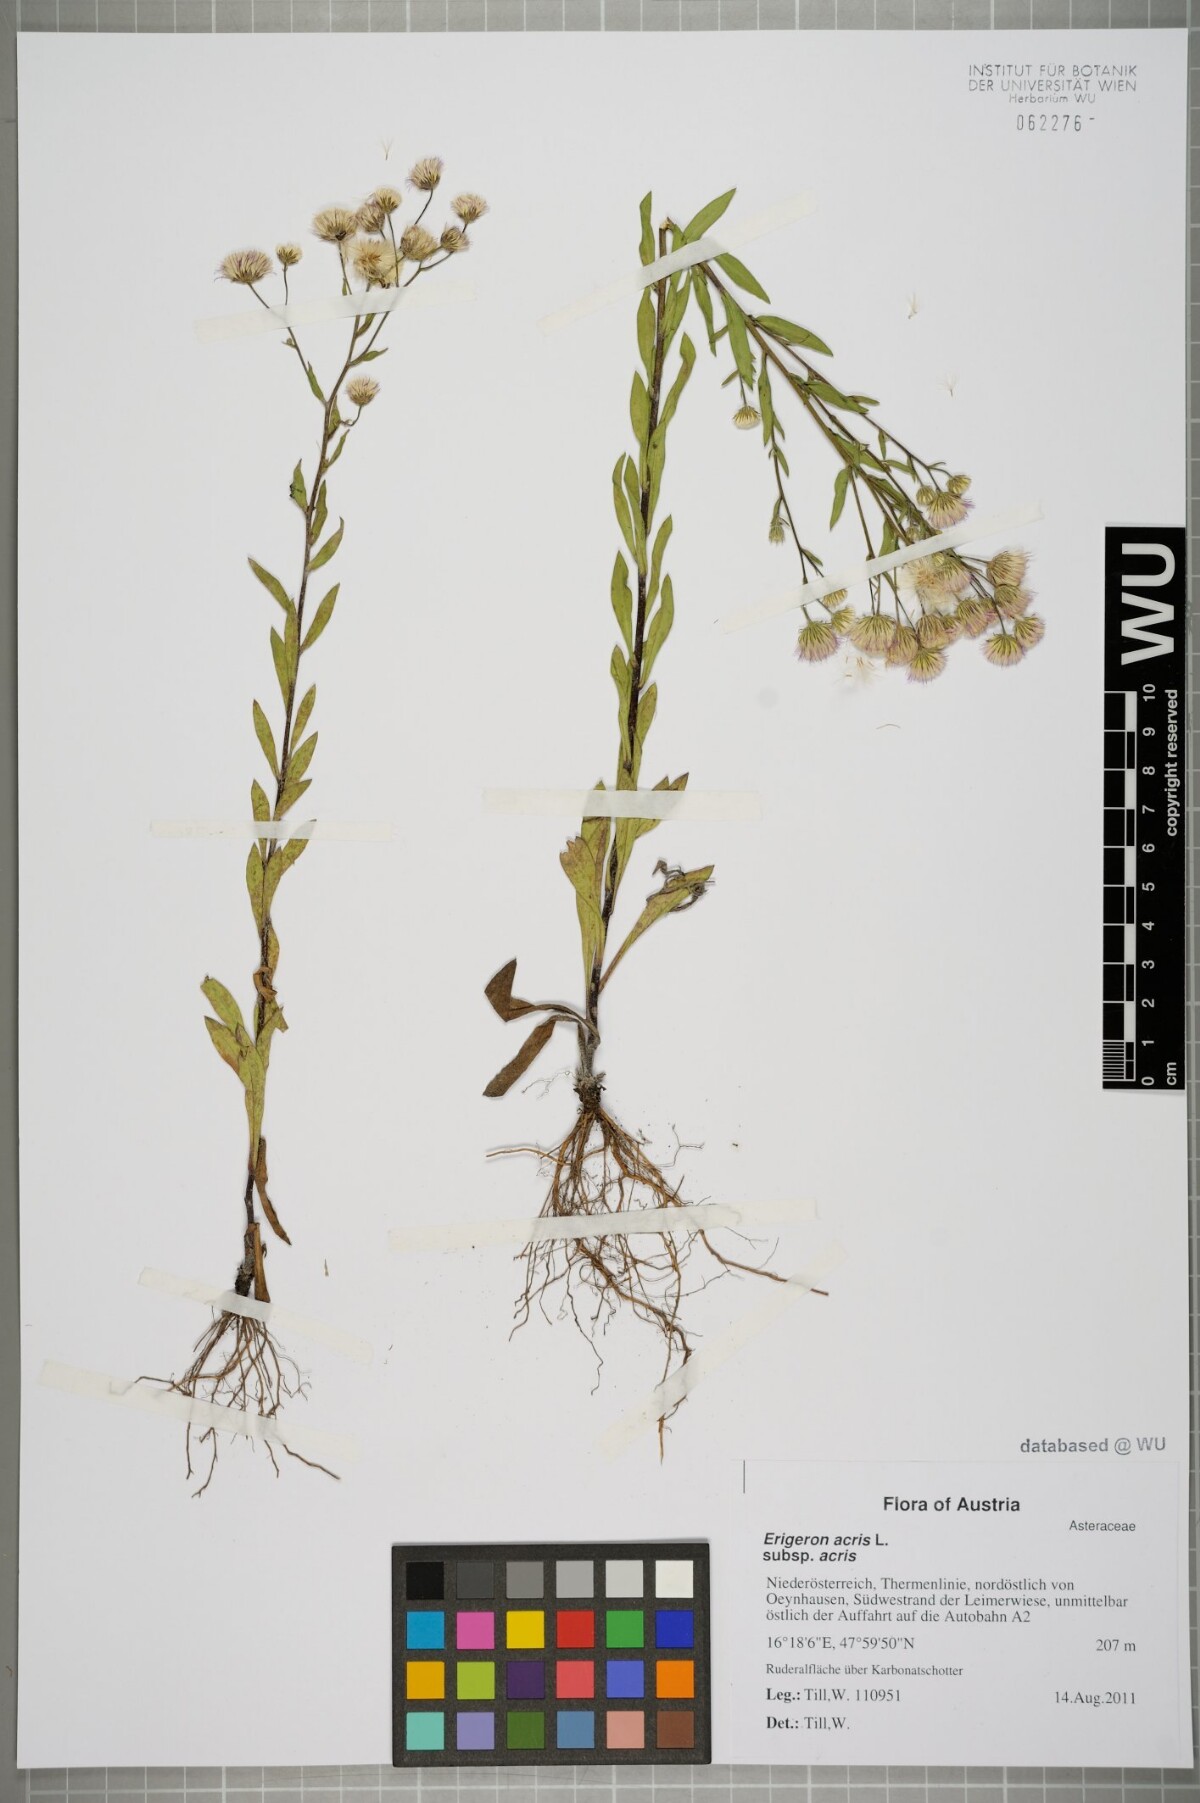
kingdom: Plantae
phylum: Tracheophyta
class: Magnoliopsida
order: Asterales
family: Asteraceae
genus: Erigeron
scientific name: Erigeron acris
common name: Blue fleabane
